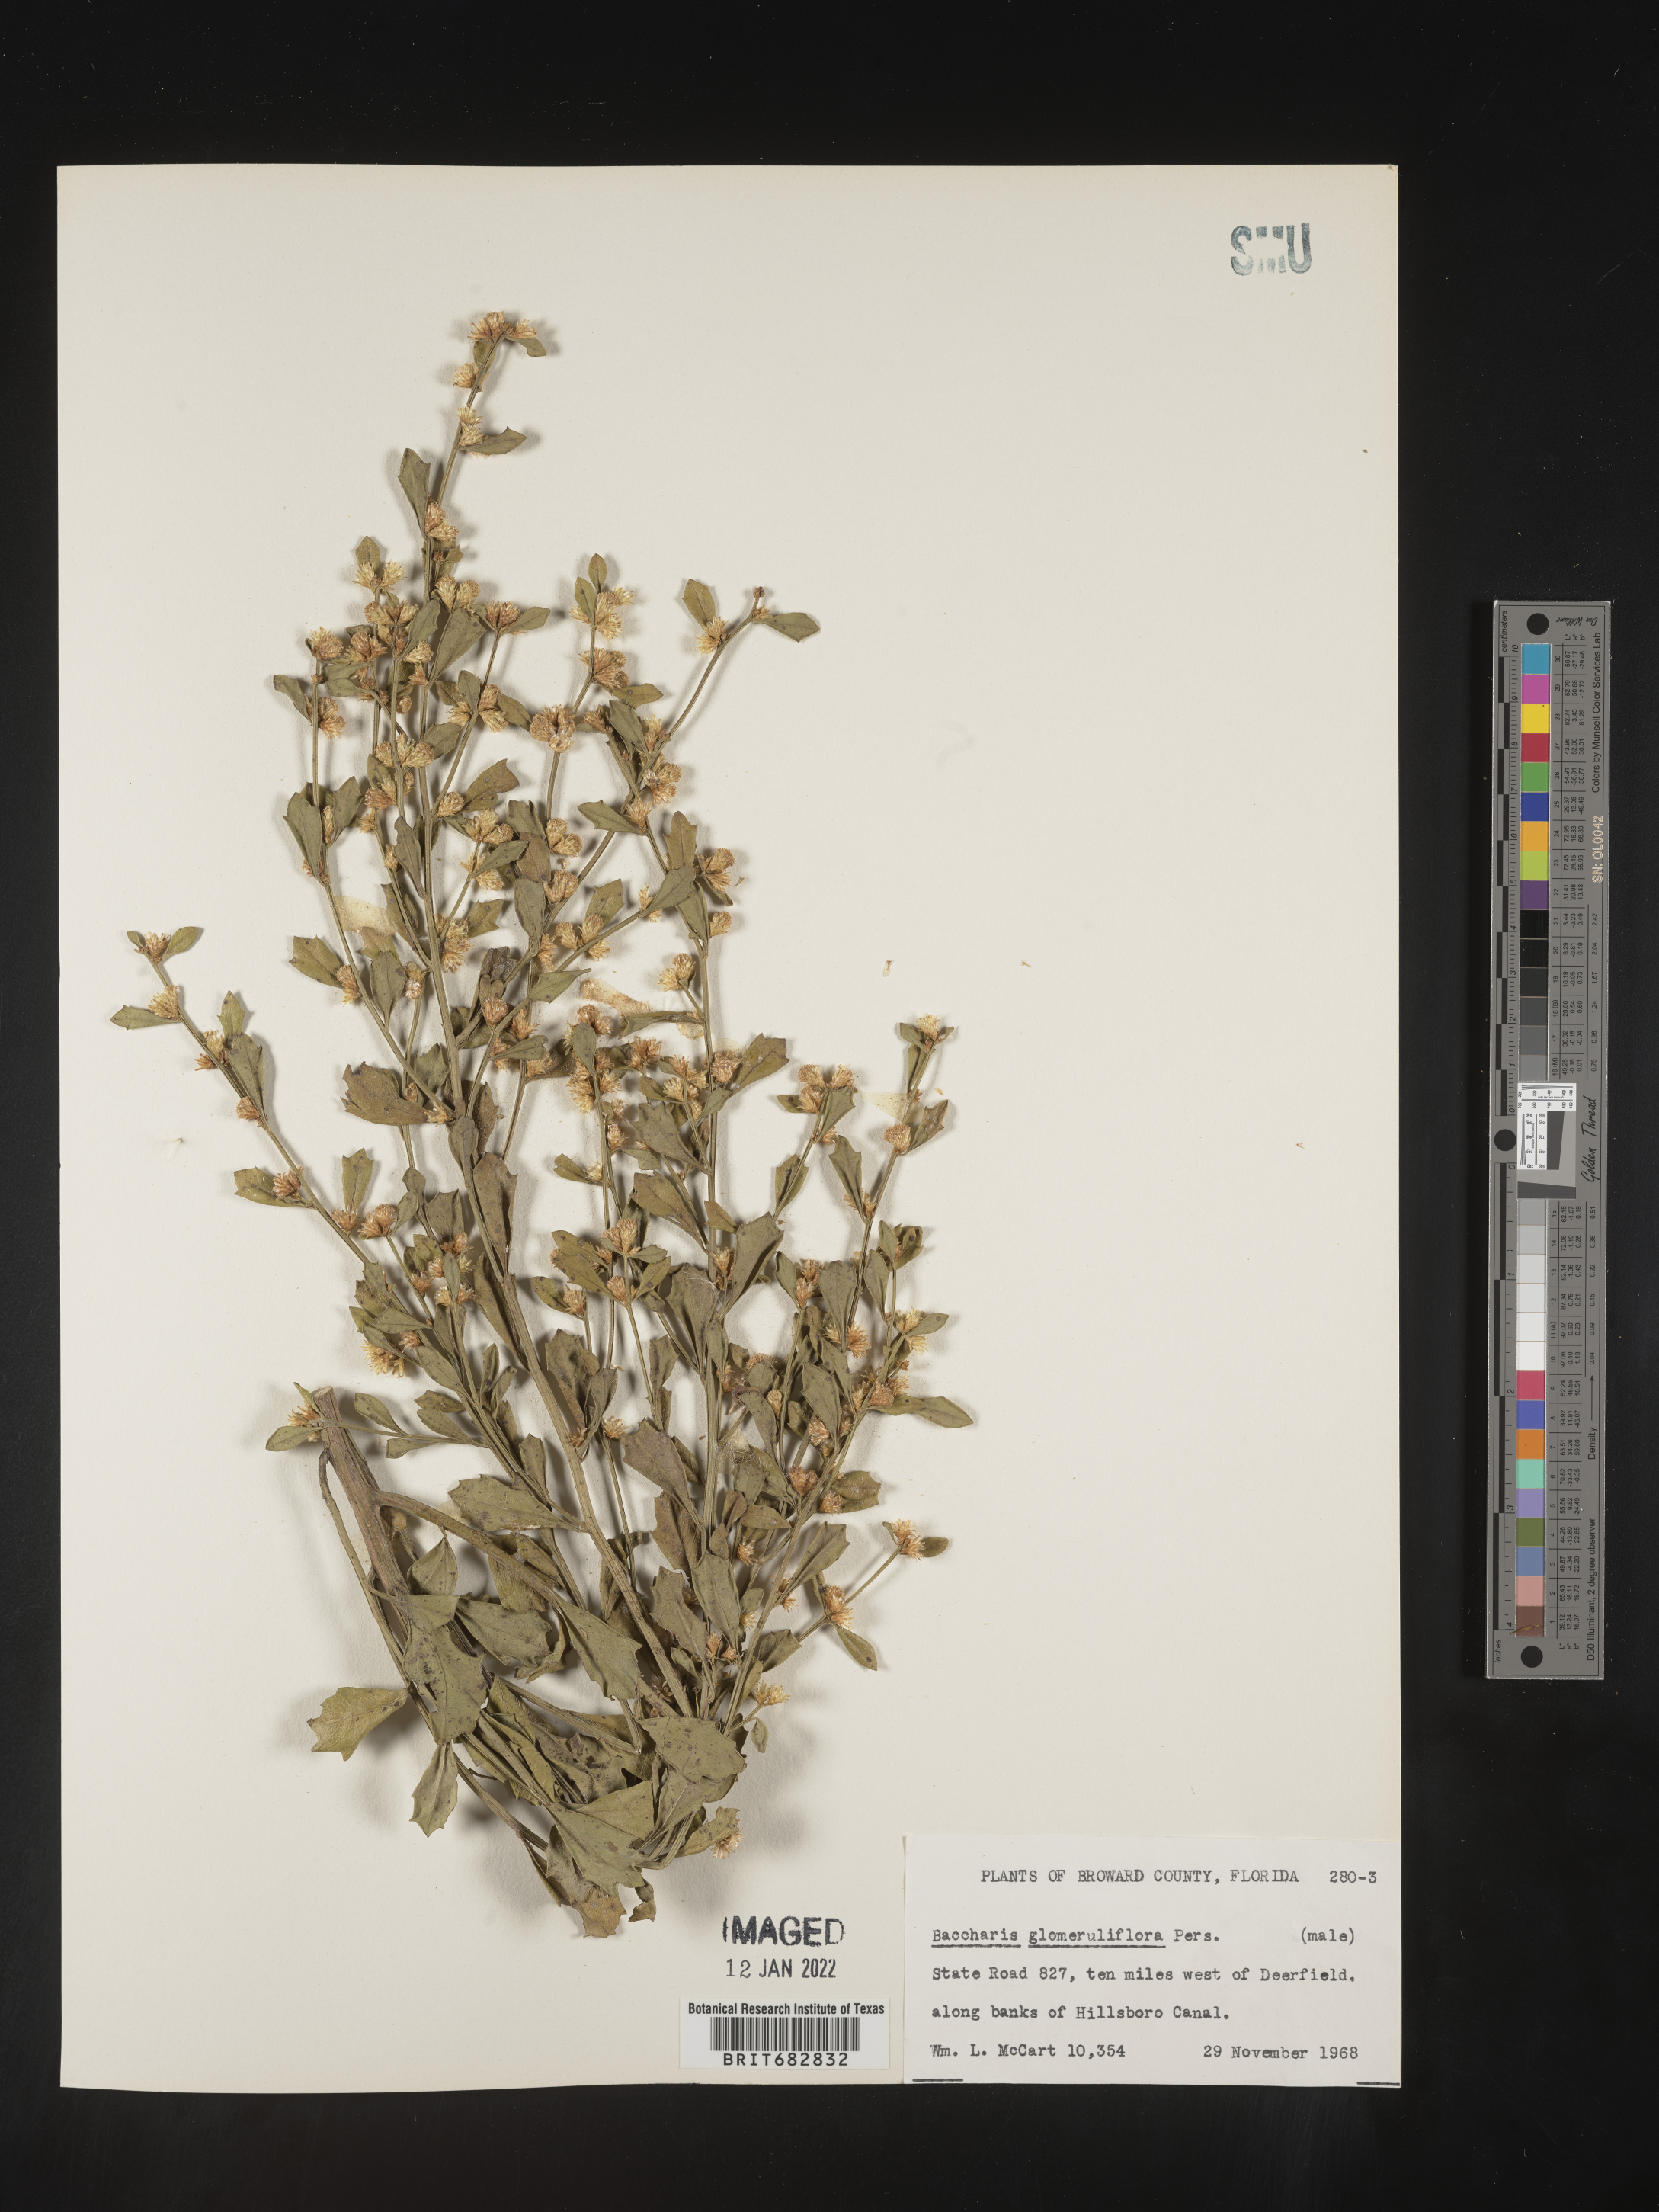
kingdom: Plantae
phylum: Tracheophyta
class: Magnoliopsida
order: Asterales
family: Asteraceae
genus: Baccharis
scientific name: Baccharis glomeruliflora
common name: Silverling groundsel bush
